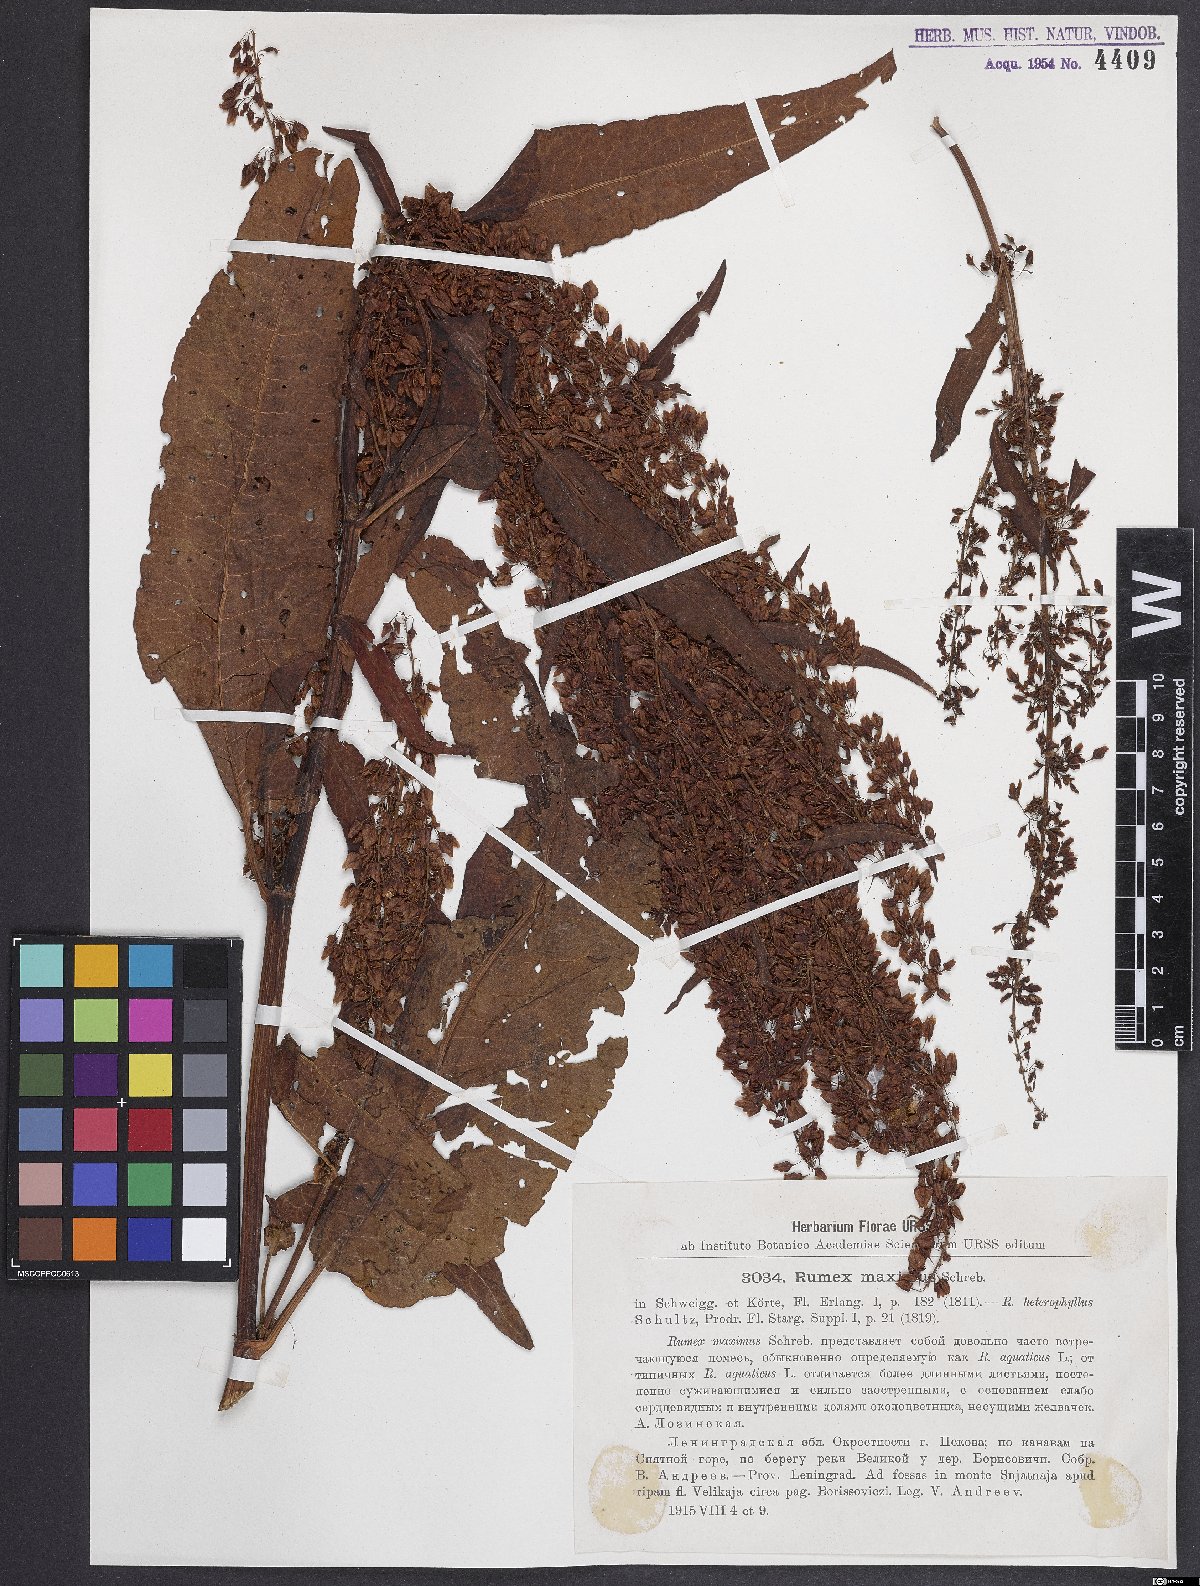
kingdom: Plantae
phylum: Tracheophyta
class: Magnoliopsida
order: Caryophyllales
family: Polygonaceae
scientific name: Polygonaceae
